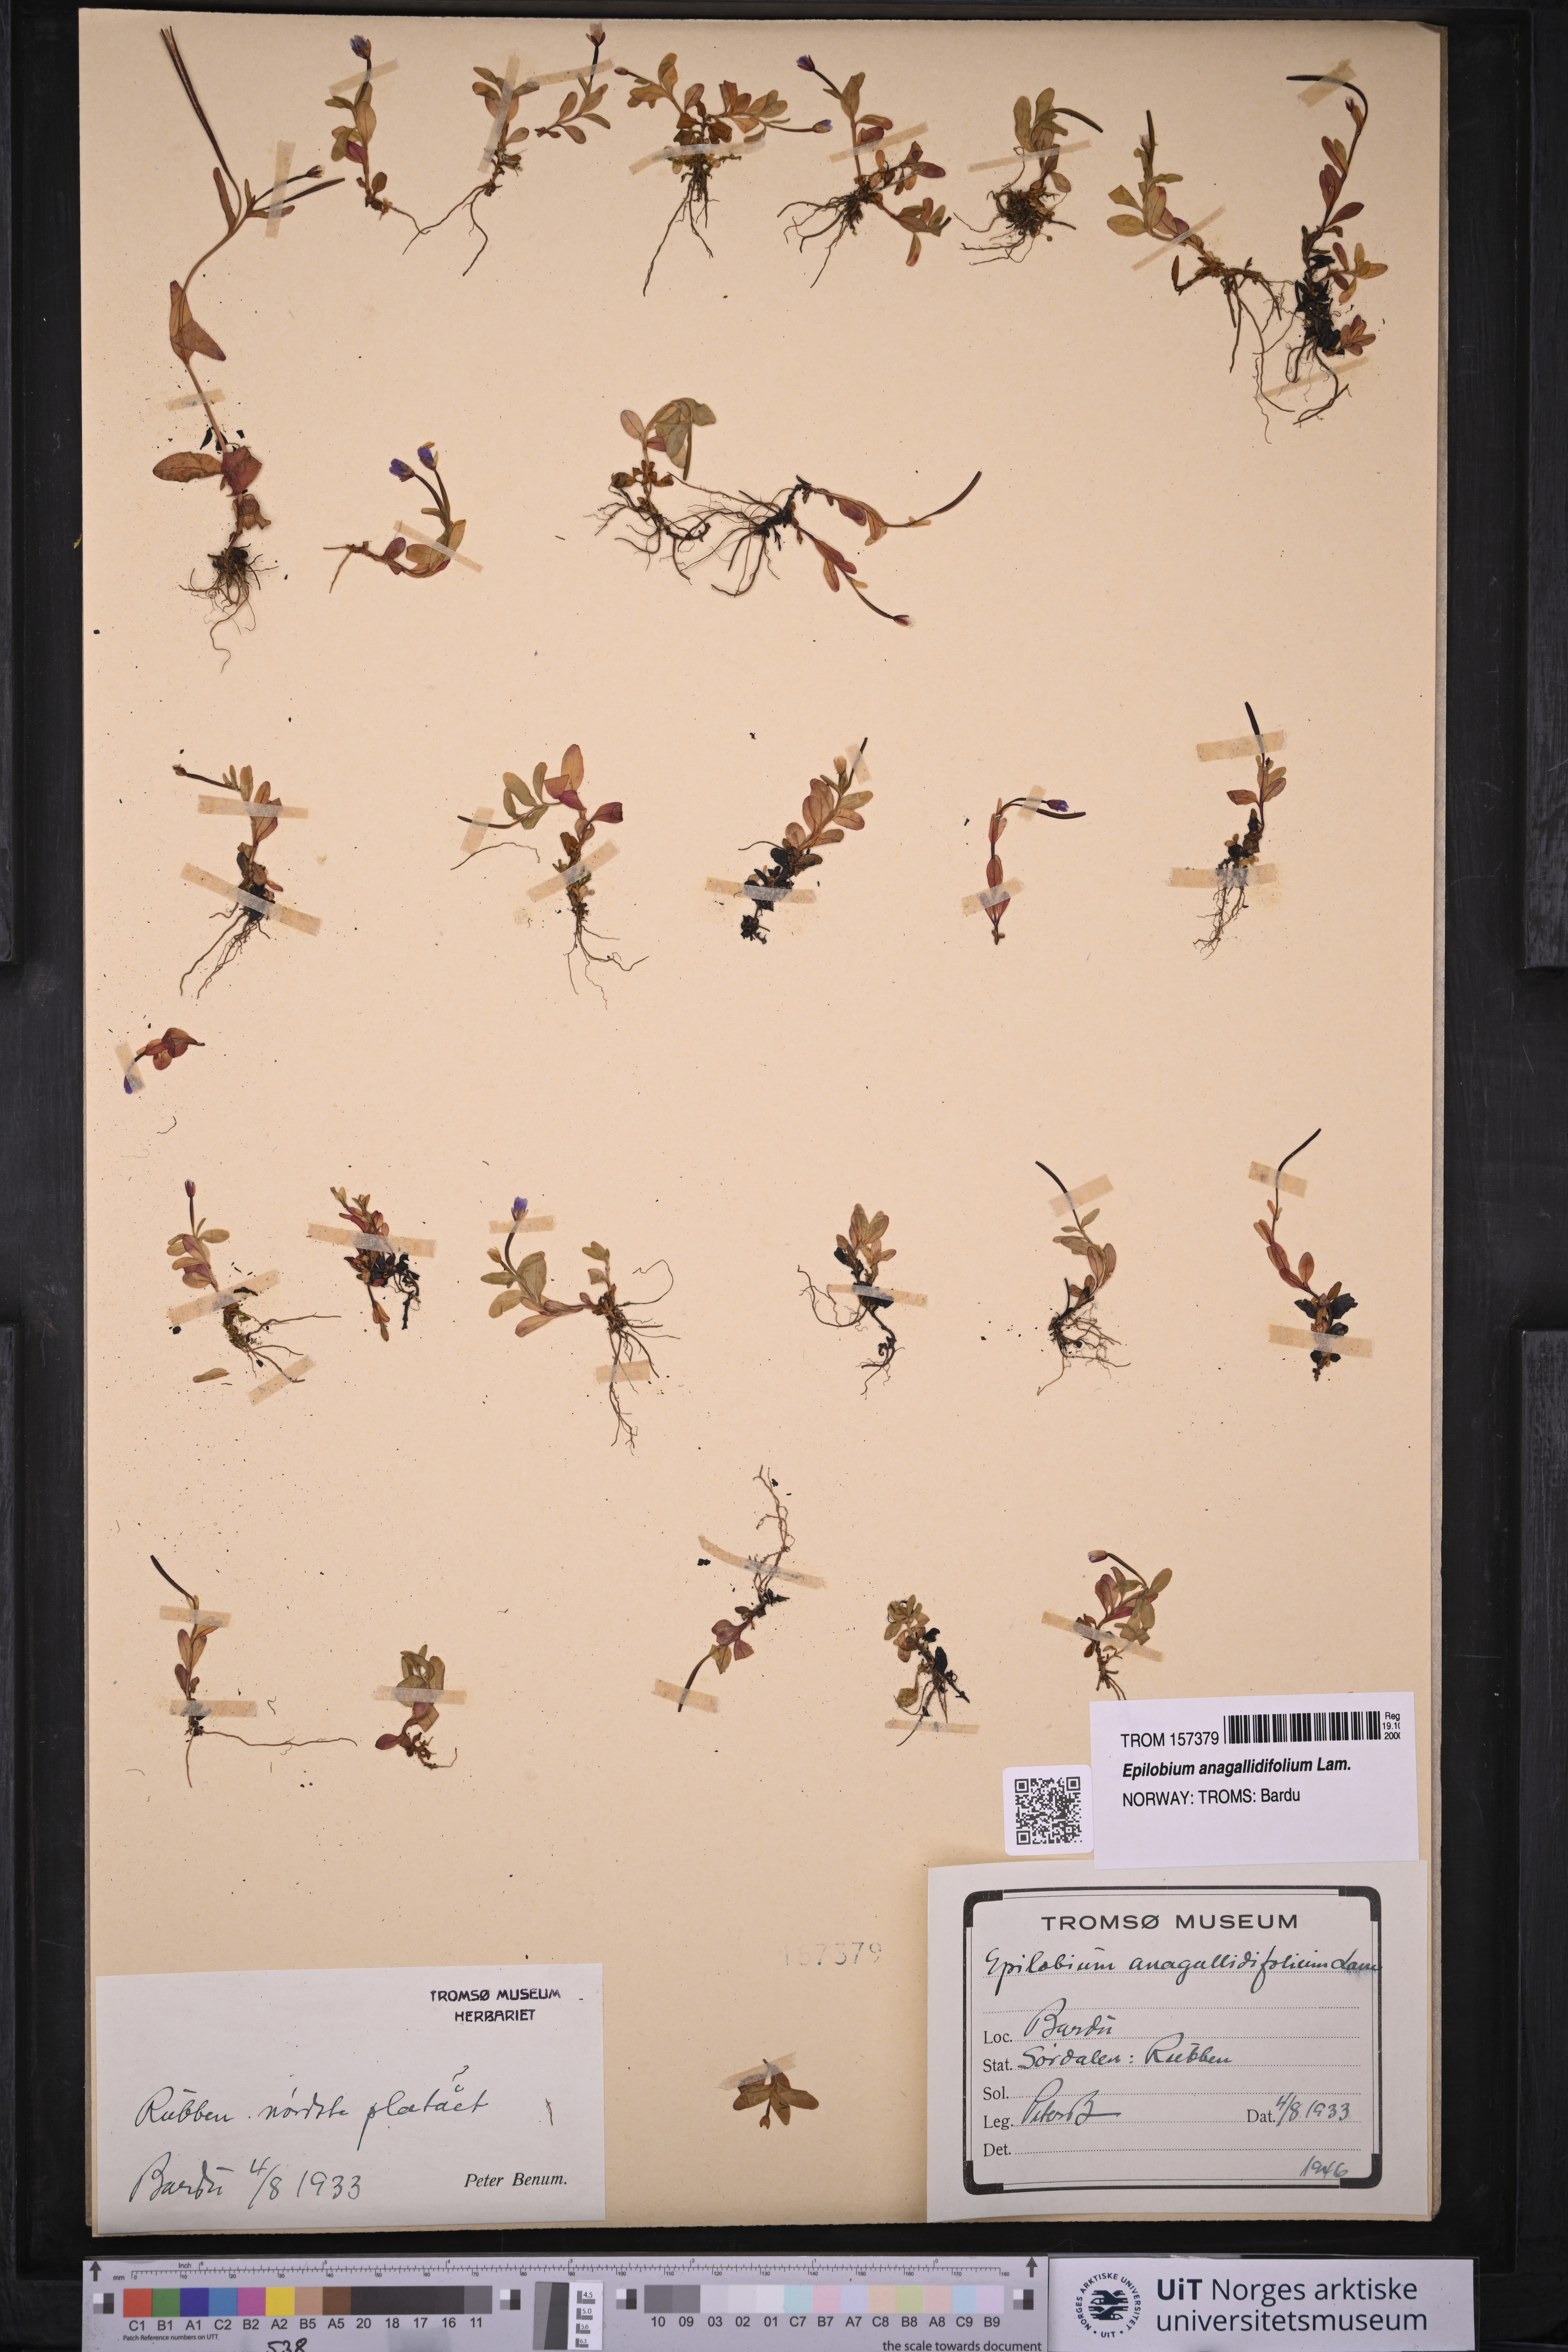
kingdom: Plantae
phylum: Tracheophyta
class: Magnoliopsida
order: Myrtales
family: Onagraceae
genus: Epilobium
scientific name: Epilobium anagallidifolium
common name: Alpine willowherb
